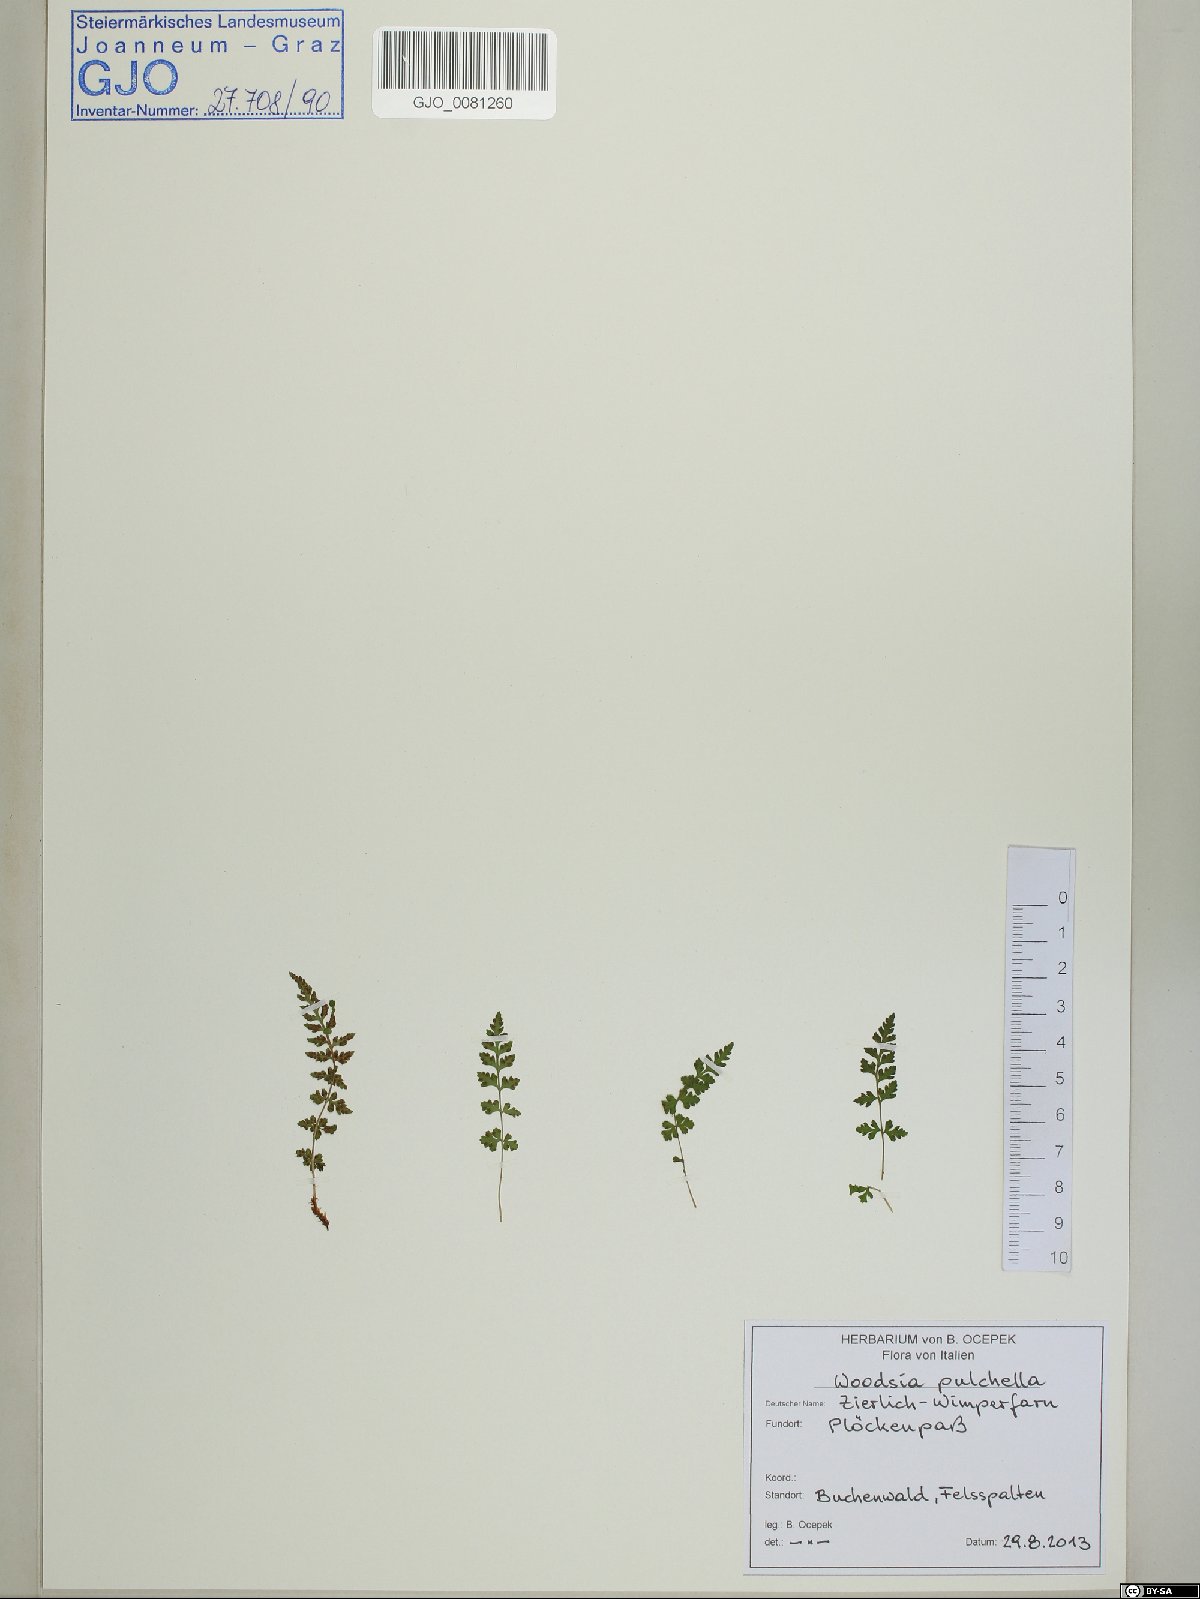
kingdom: Plantae
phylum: Tracheophyta
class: Polypodiopsida
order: Polypodiales
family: Woodsiaceae
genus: Woodsia
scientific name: Woodsia pulchella
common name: Graceful woodsia
